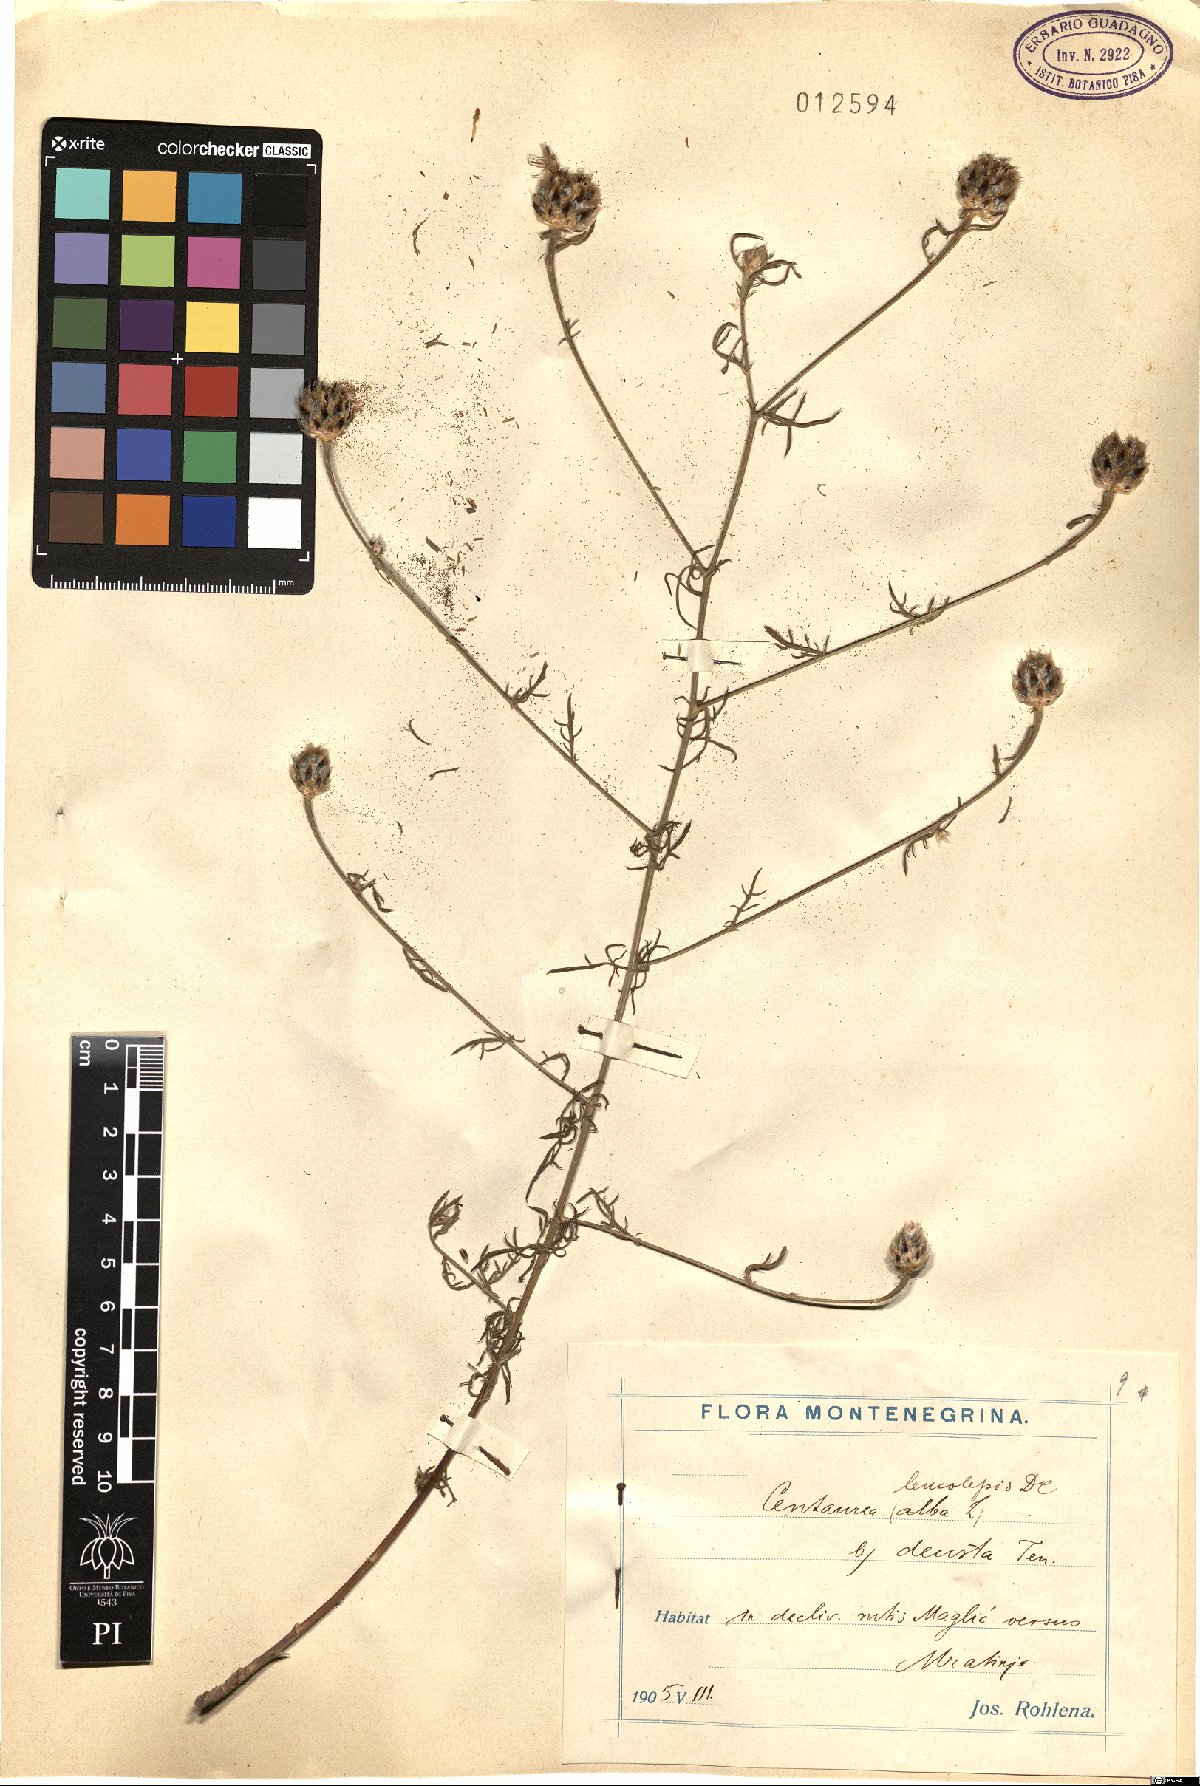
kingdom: Plantae
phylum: Tracheophyta
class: Magnoliopsida
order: Asterales
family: Asteraceae
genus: Centaurea
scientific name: Centaurea deusta
